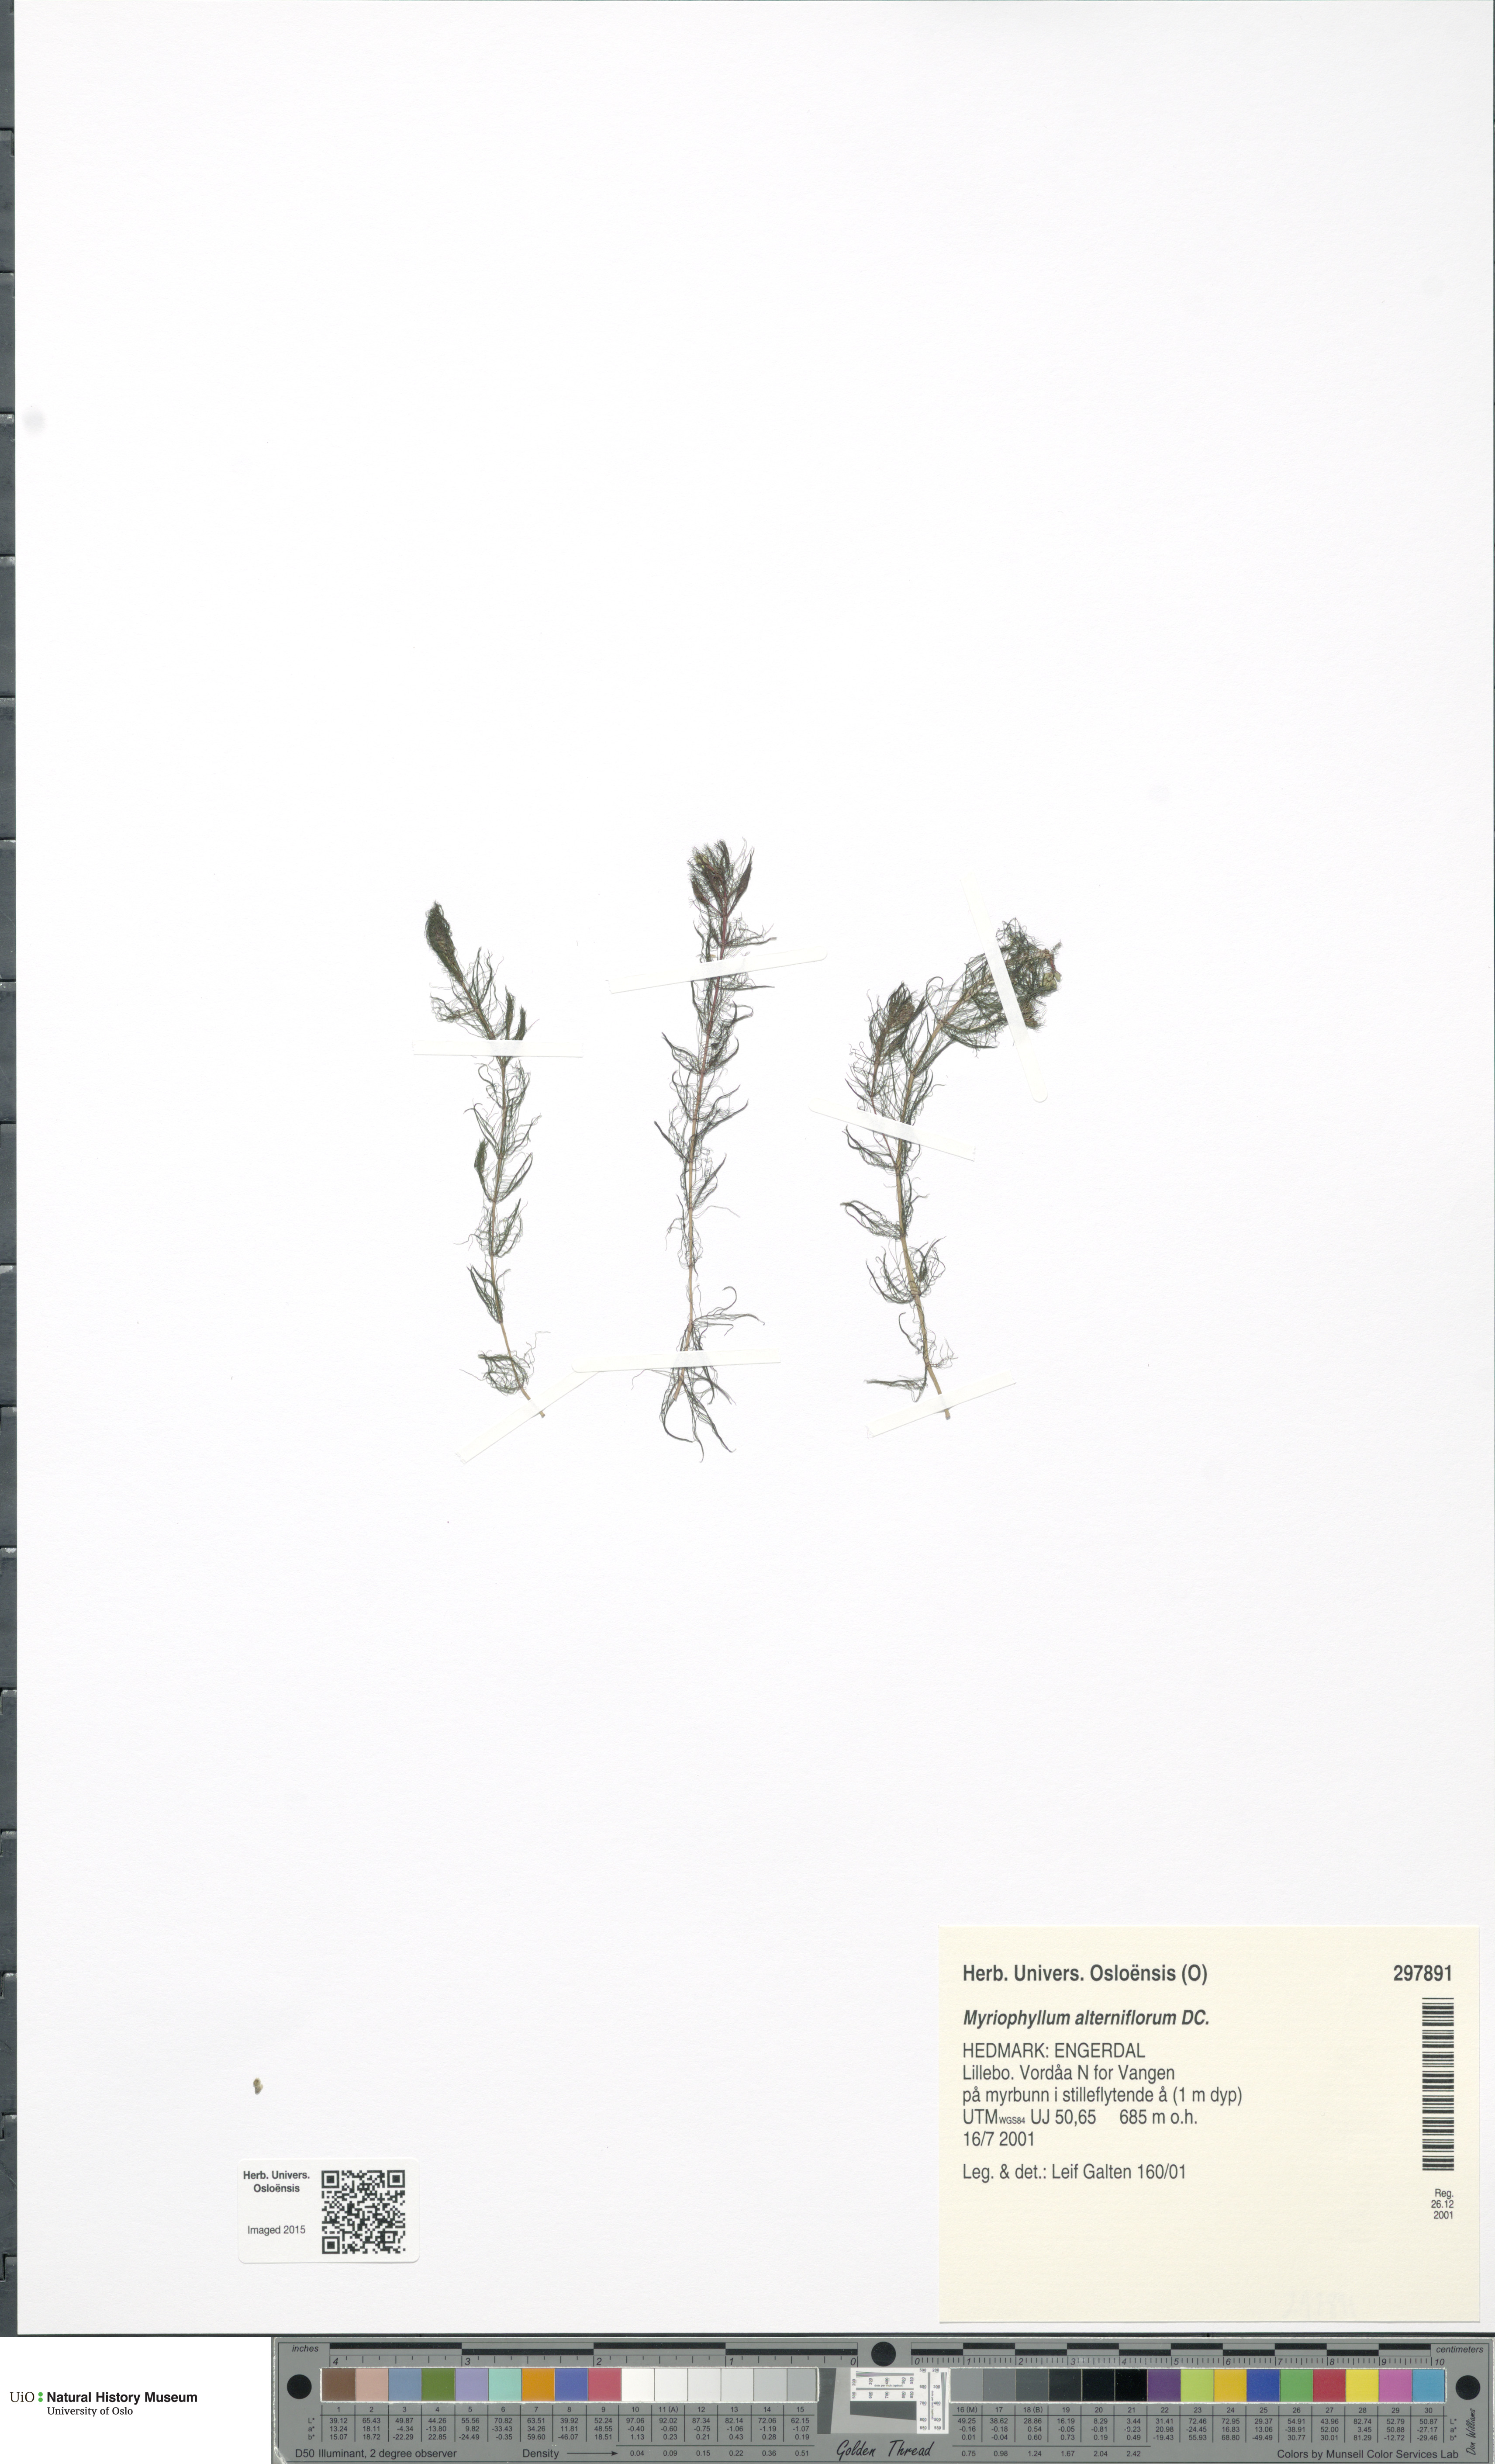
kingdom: Plantae
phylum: Tracheophyta
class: Magnoliopsida
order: Saxifragales
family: Haloragaceae
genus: Myriophyllum
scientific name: Myriophyllum alterniflorum
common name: Alternate water-milfoil
